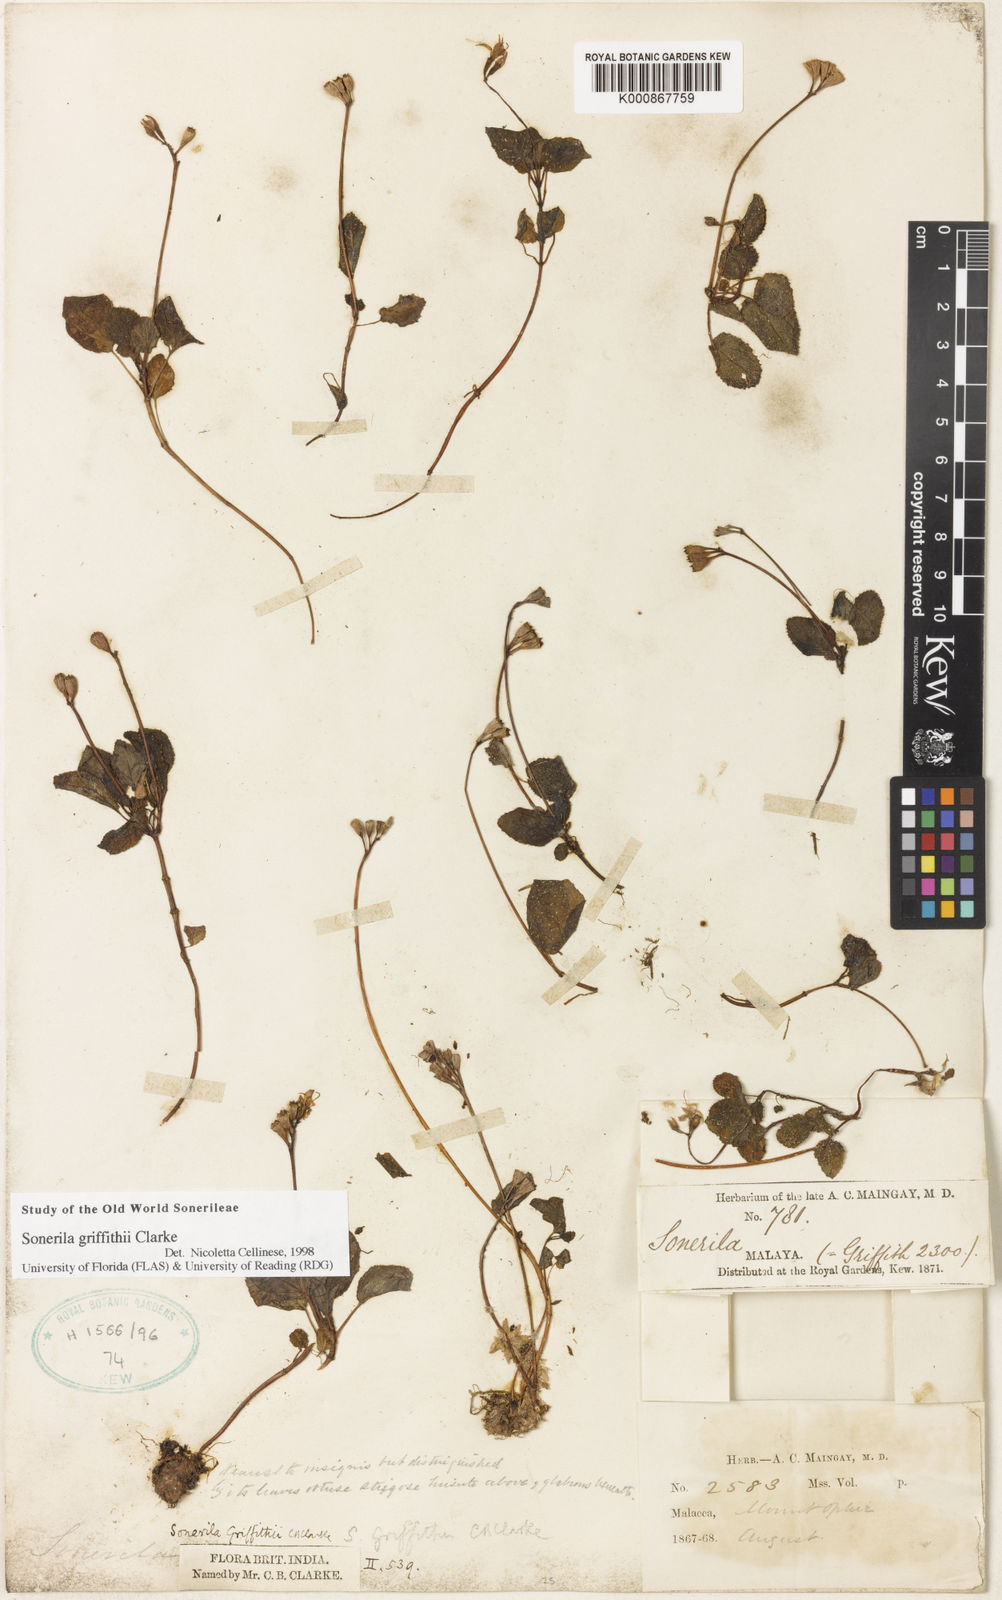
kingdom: Plantae
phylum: Tracheophyta
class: Magnoliopsida
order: Myrtales
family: Melastomataceae
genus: Sonerila
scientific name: Sonerila griffithii
